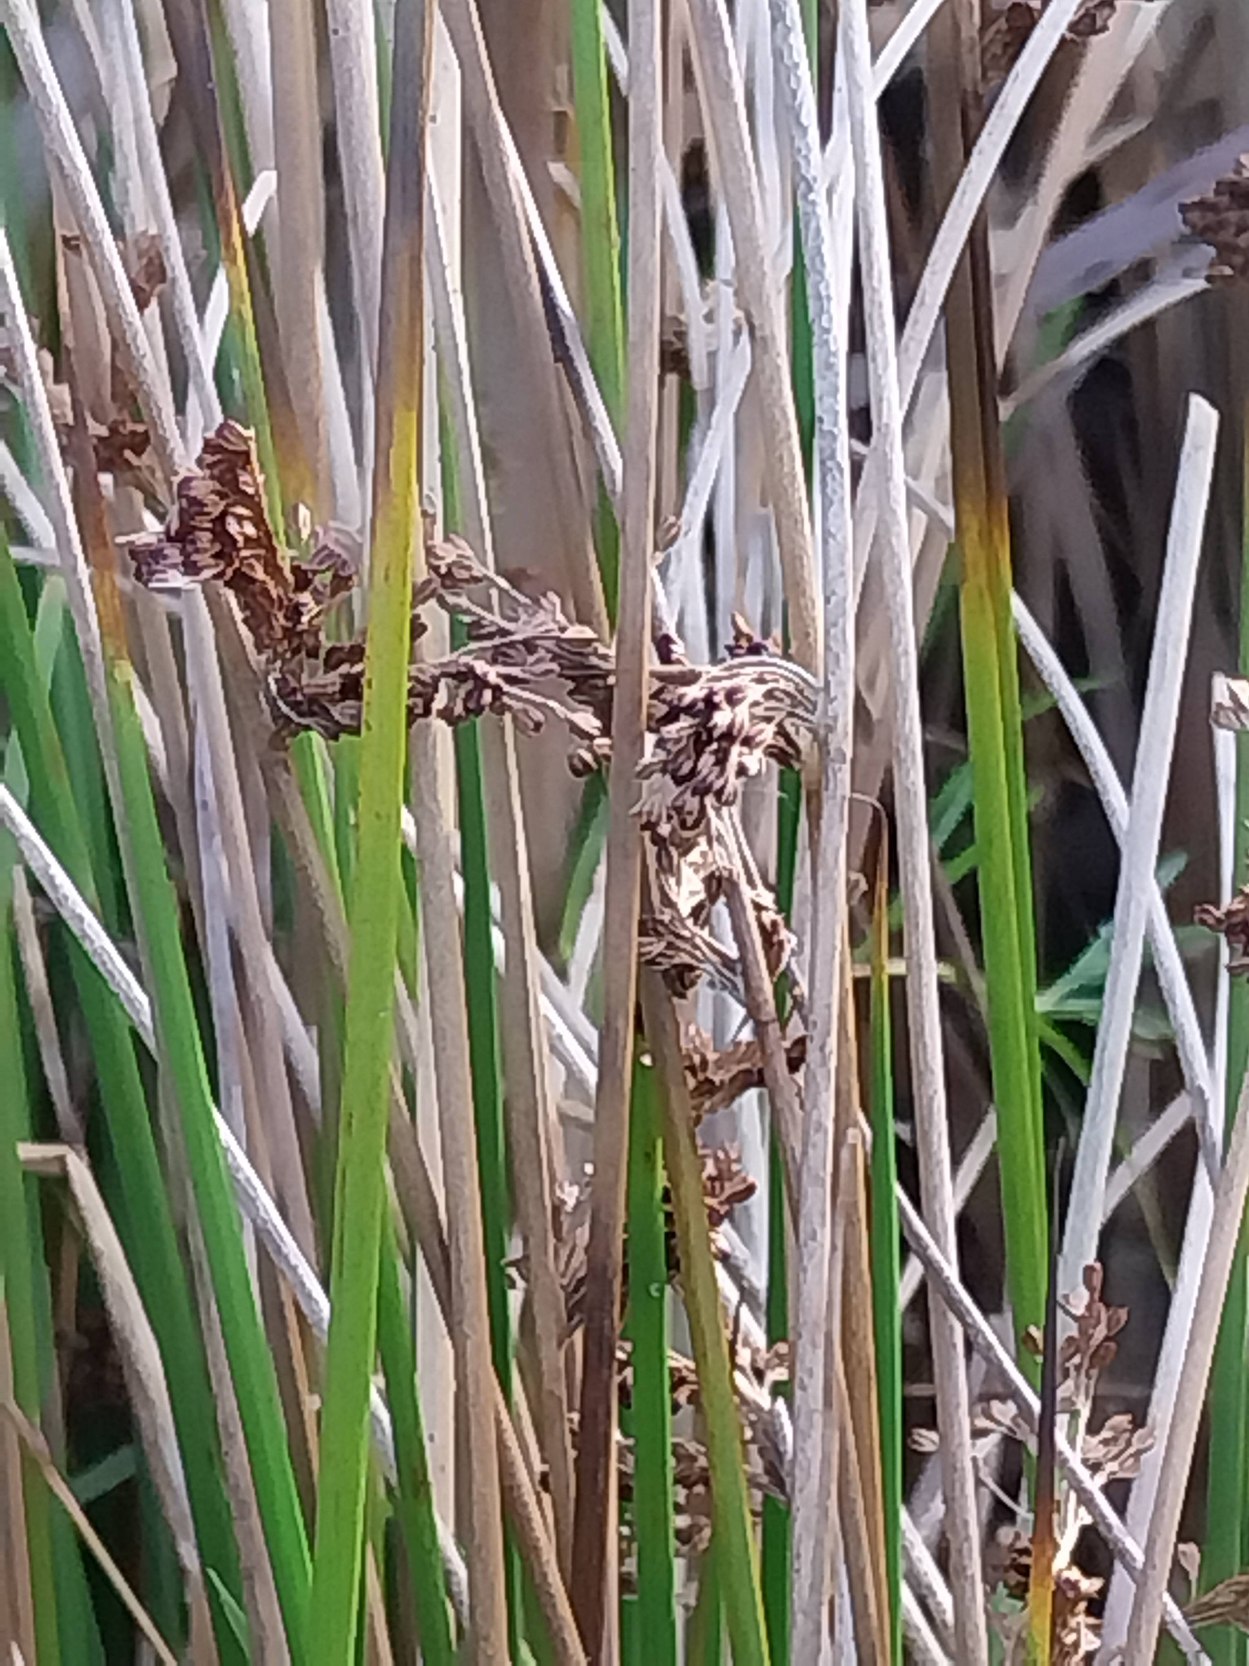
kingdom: Plantae
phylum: Tracheophyta
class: Liliopsida
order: Poales
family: Juncaceae
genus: Juncus
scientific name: Juncus effusus
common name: Lyse-siv
